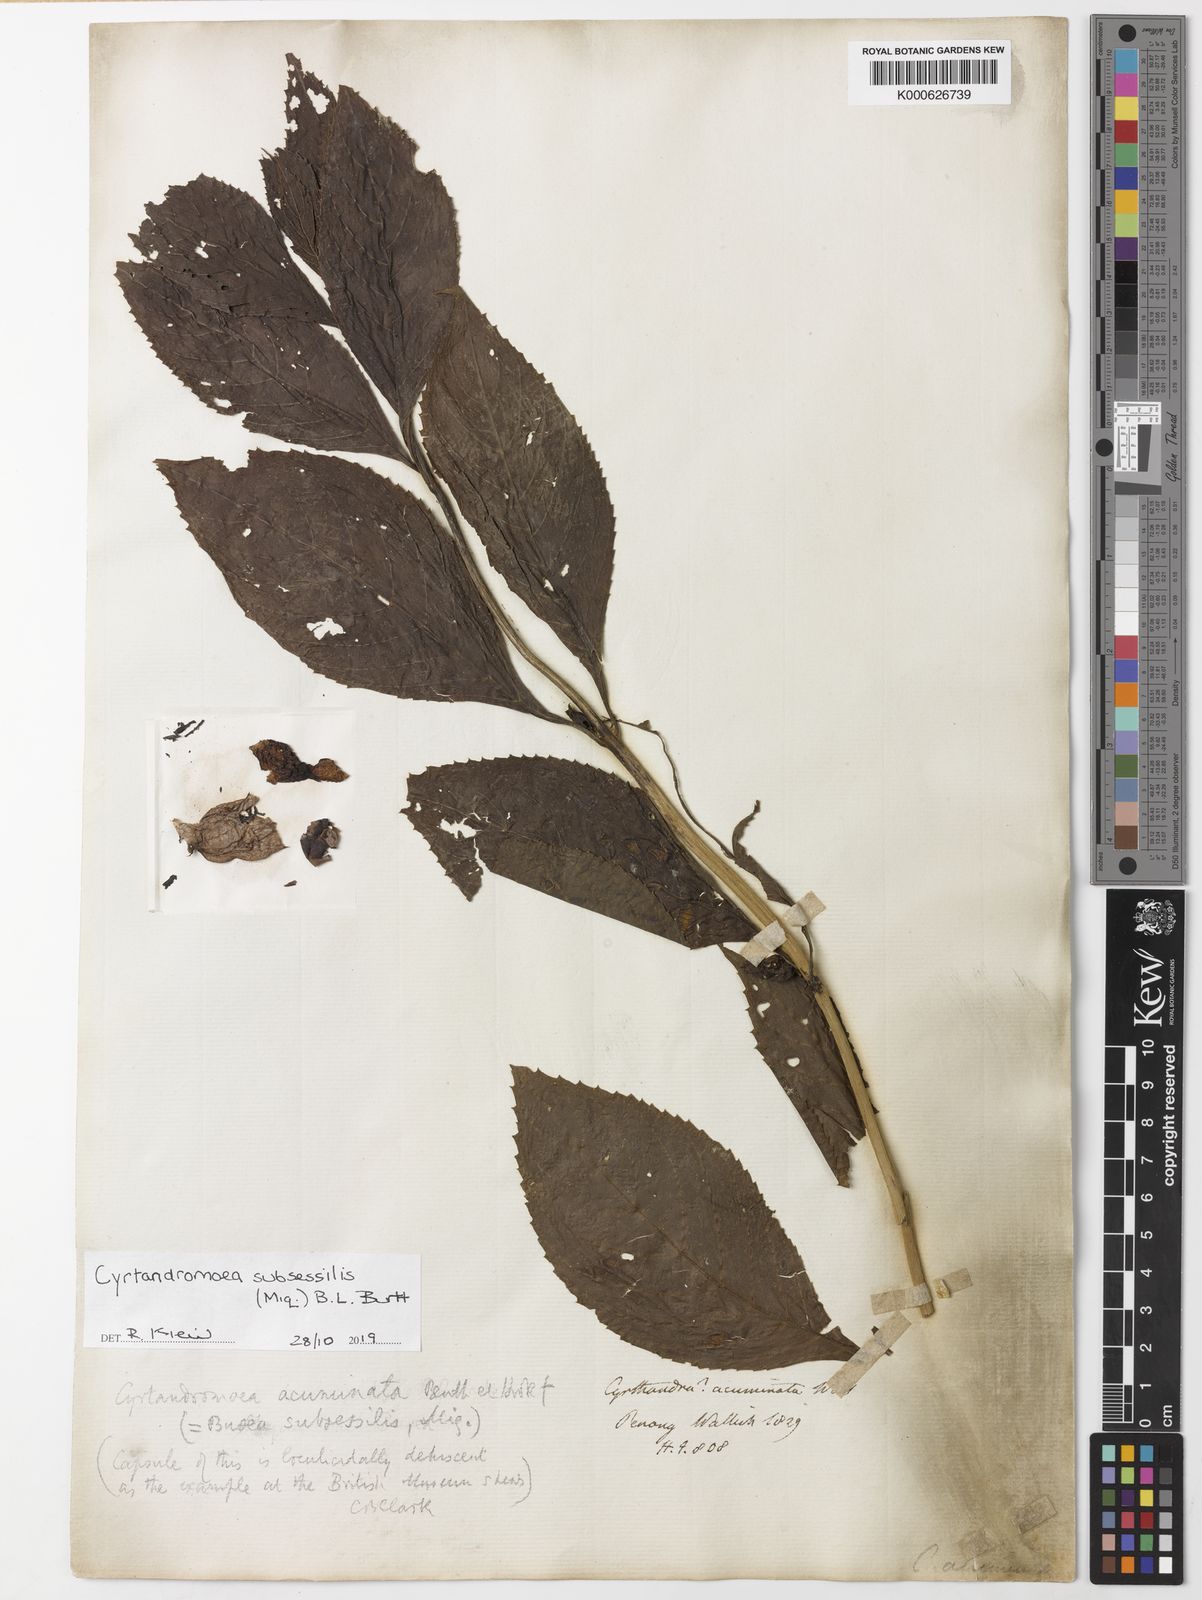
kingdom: Plantae
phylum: Tracheophyta
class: Magnoliopsida
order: Lamiales
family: Phrymaceae
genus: Cyrtandromoea
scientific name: Cyrtandromoea subsessilis
